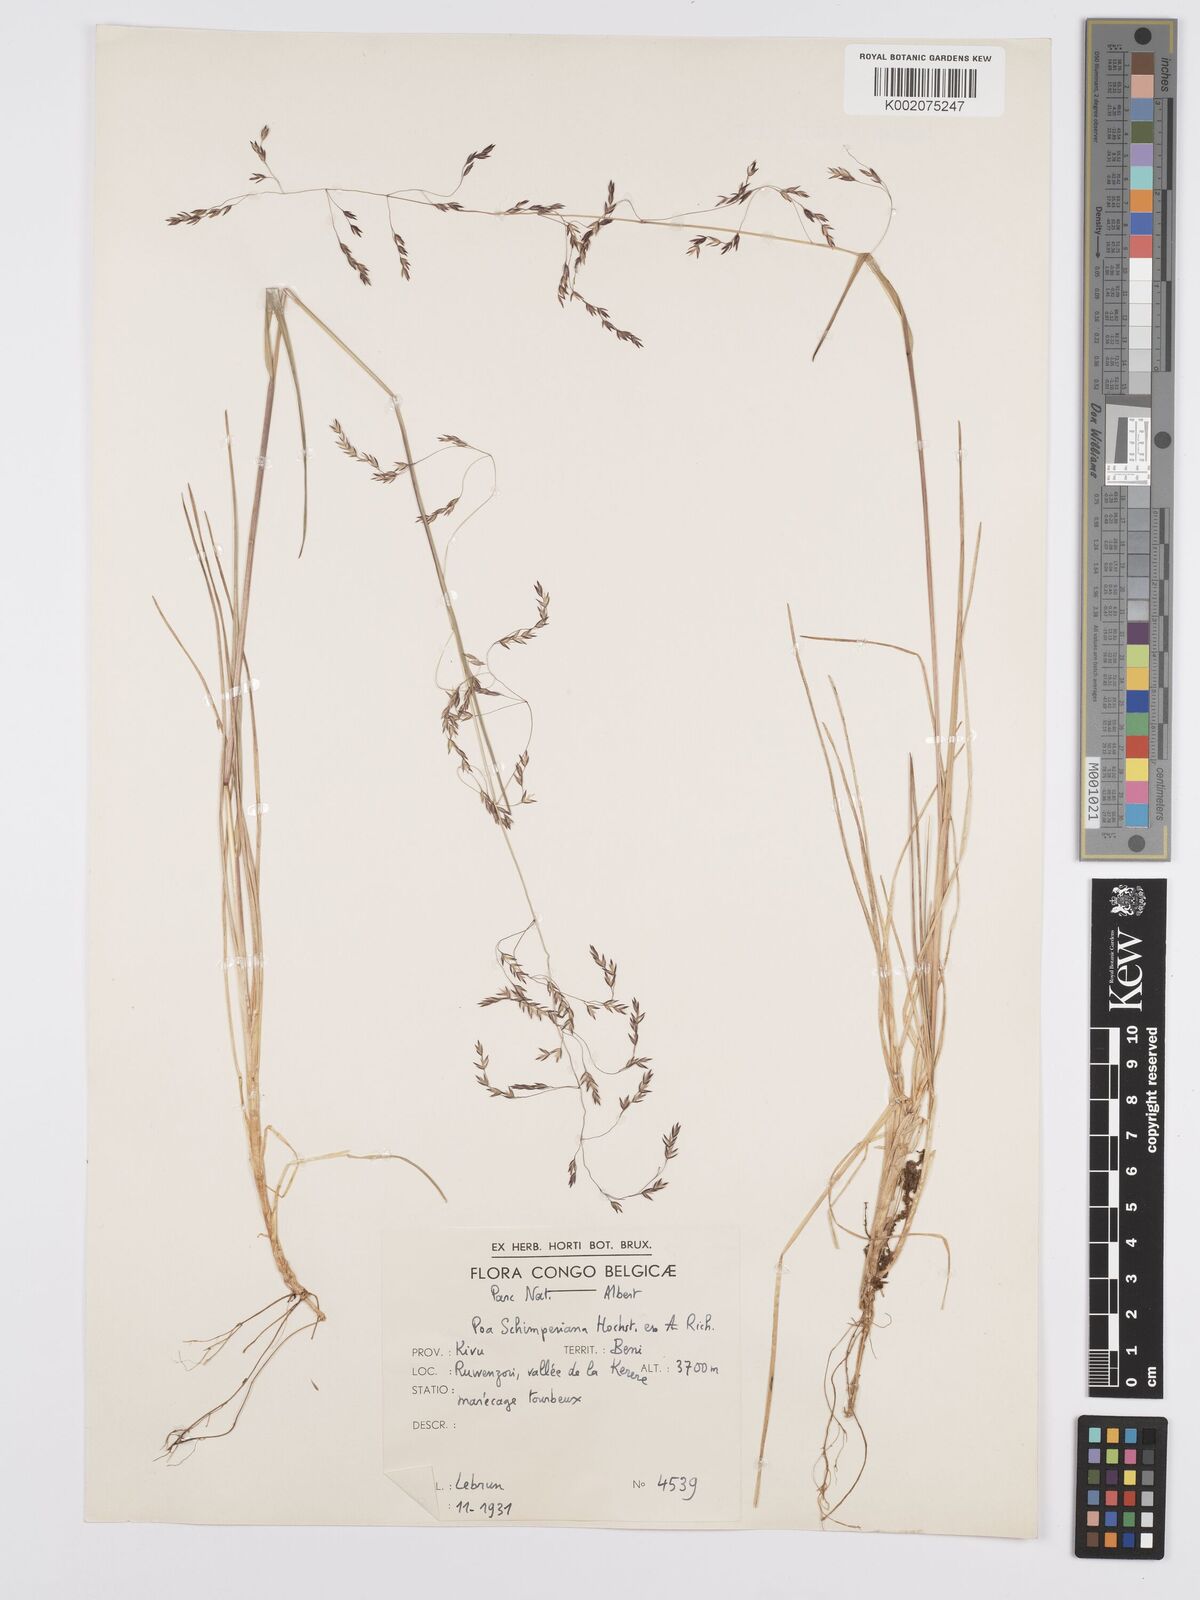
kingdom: Plantae
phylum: Tracheophyta
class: Liliopsida
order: Poales
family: Poaceae
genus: Poa
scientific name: Poa schimperiana
